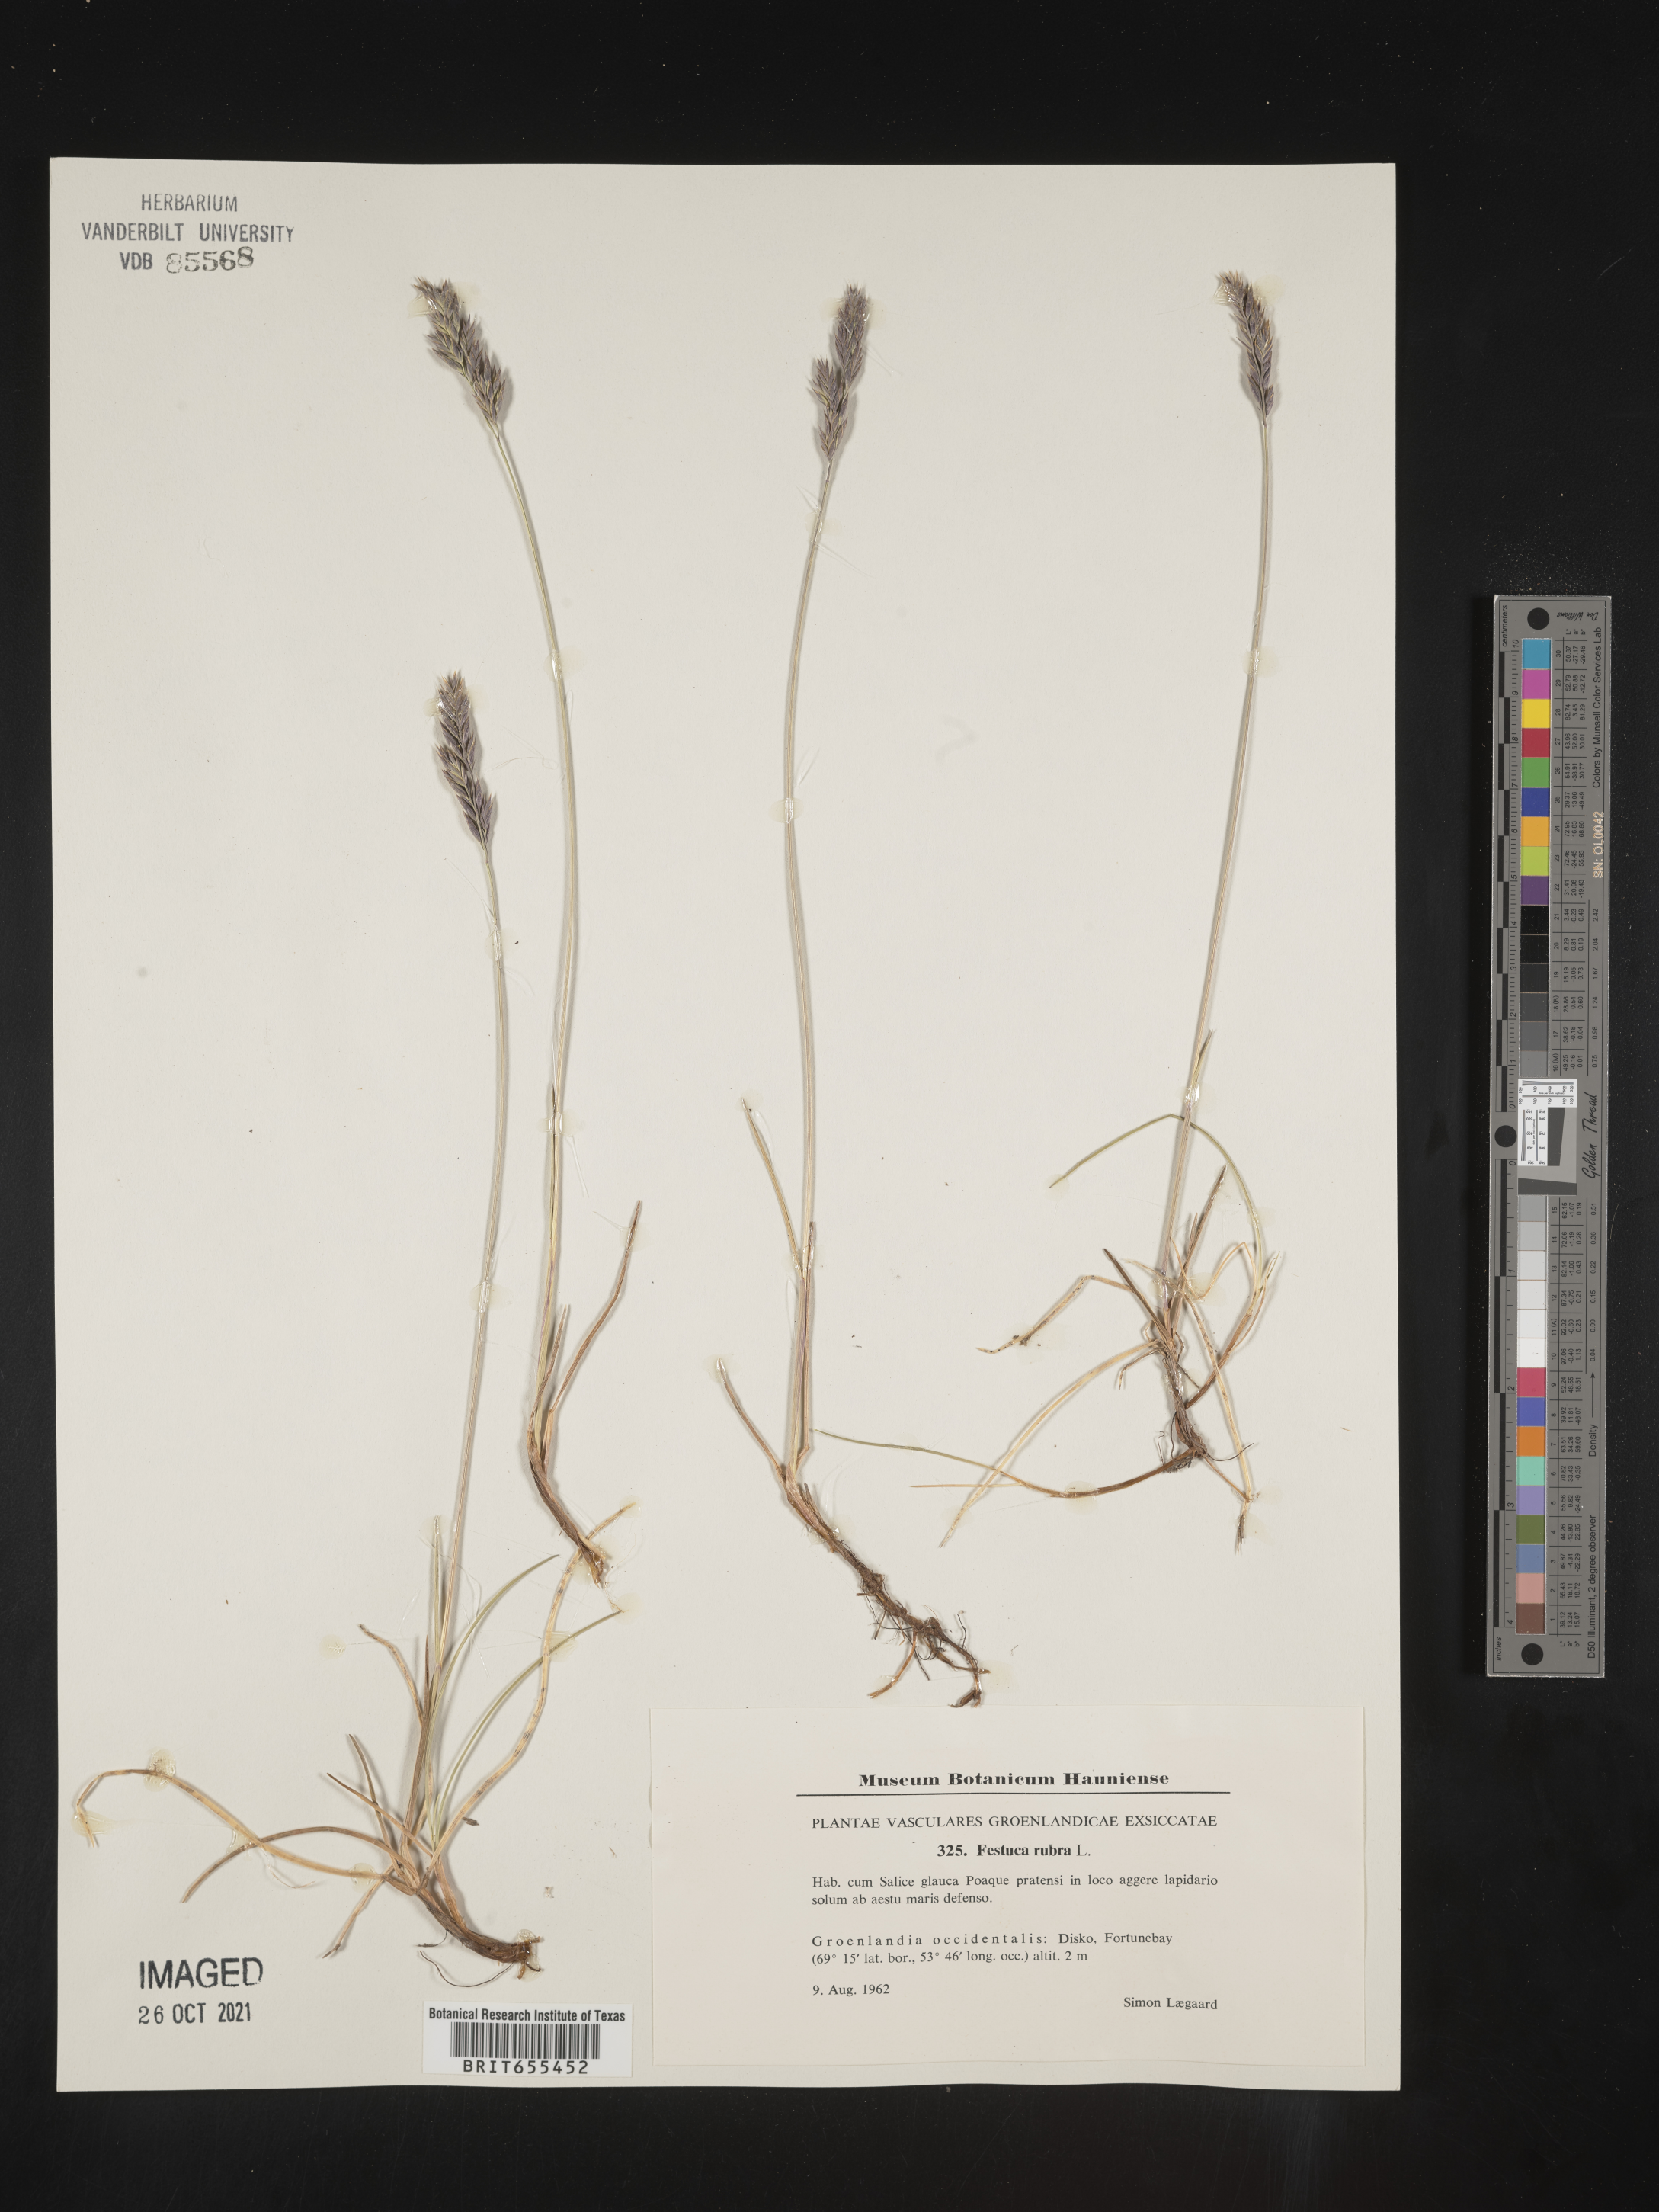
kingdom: Plantae
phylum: Tracheophyta
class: Liliopsida
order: Poales
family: Poaceae
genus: Festuca
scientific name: Festuca
